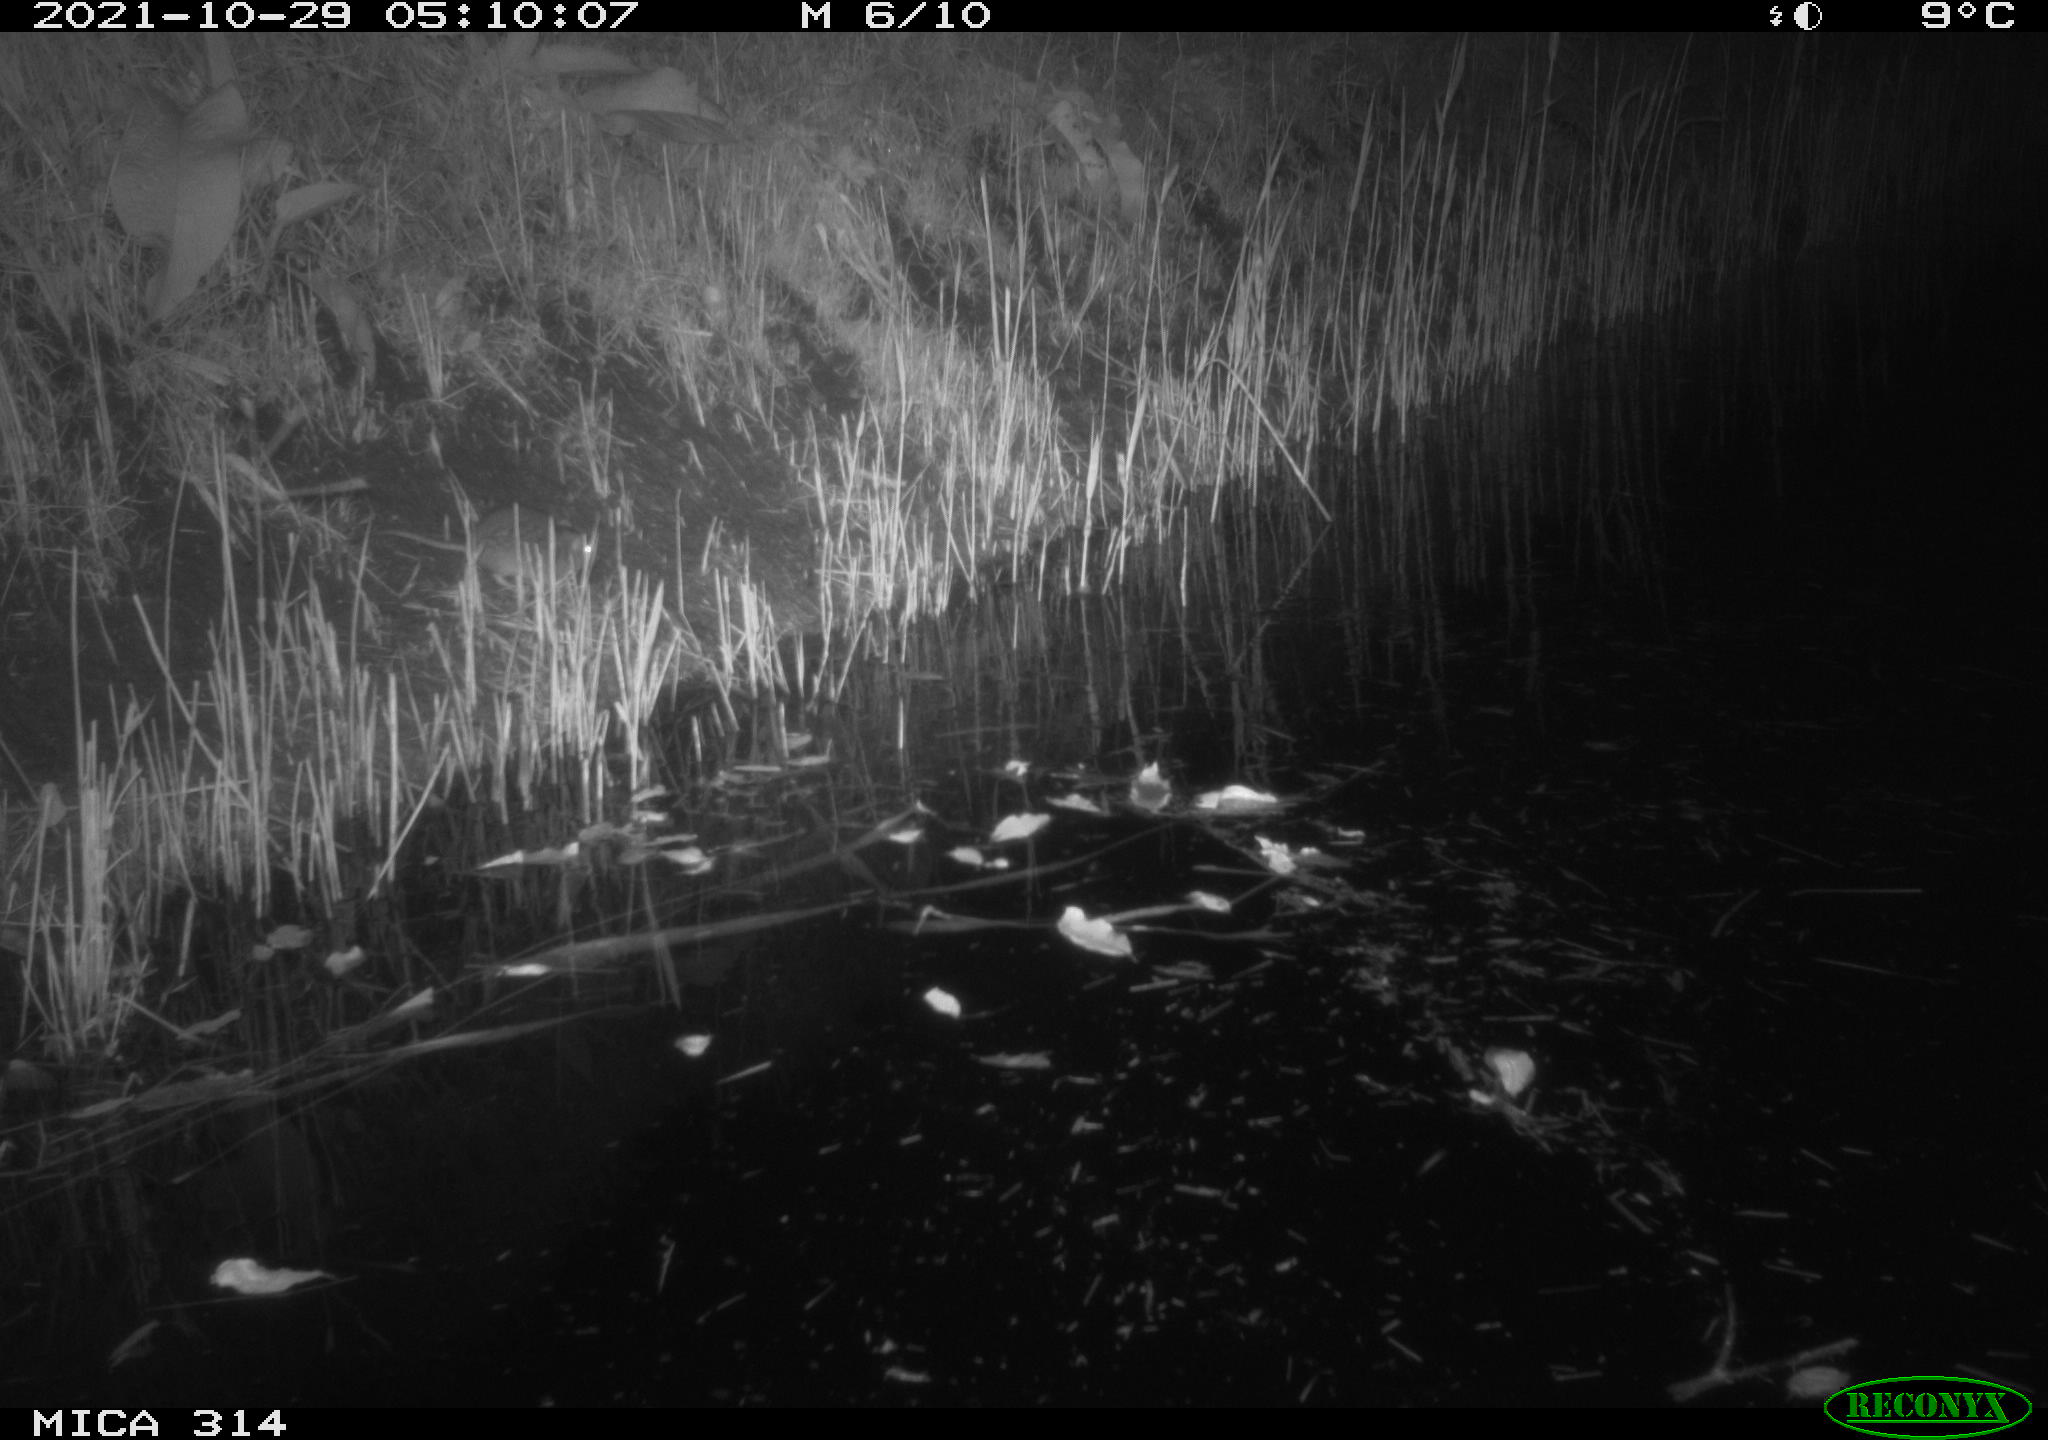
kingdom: Animalia
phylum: Chordata
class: Mammalia
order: Rodentia
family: Muridae
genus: Rattus
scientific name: Rattus norvegicus
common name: Brown rat
